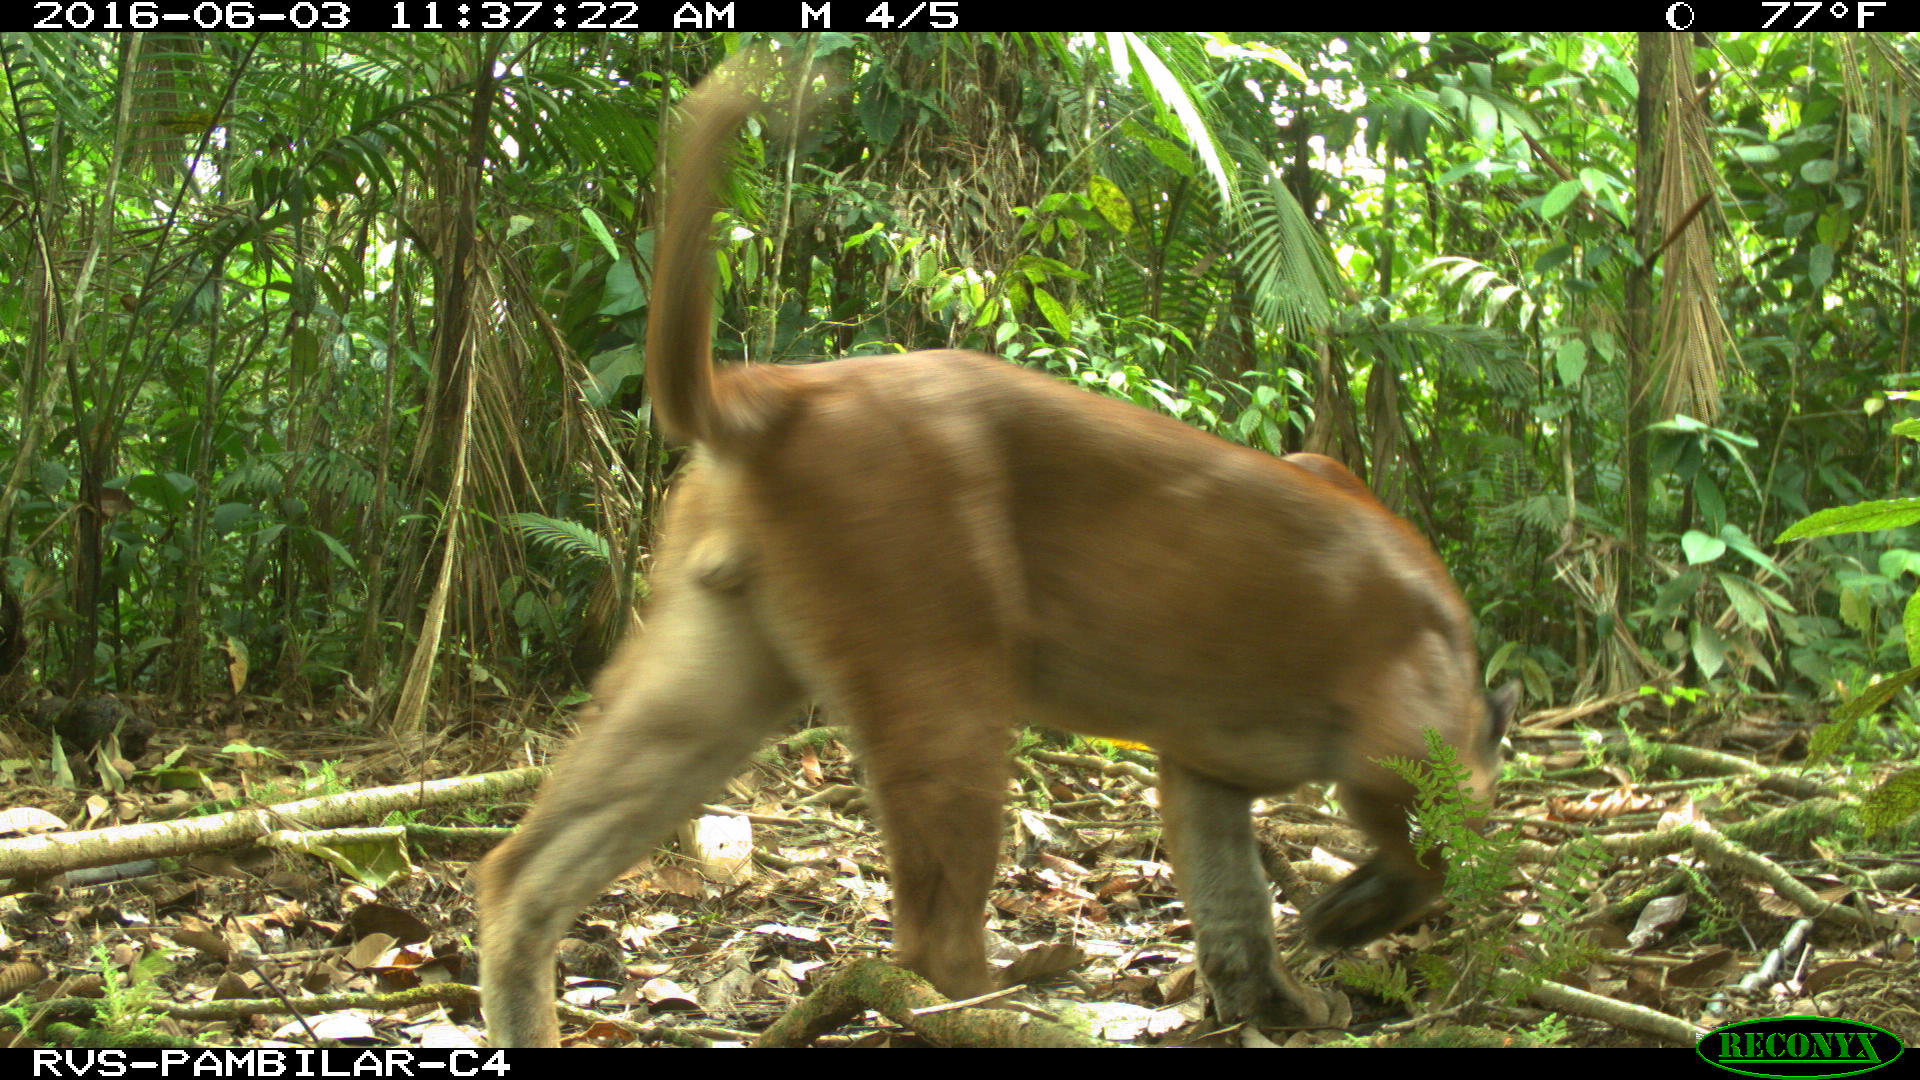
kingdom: Animalia
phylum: Chordata
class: Mammalia
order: Carnivora
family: Felidae
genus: Puma
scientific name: Puma concolor
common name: Puma
